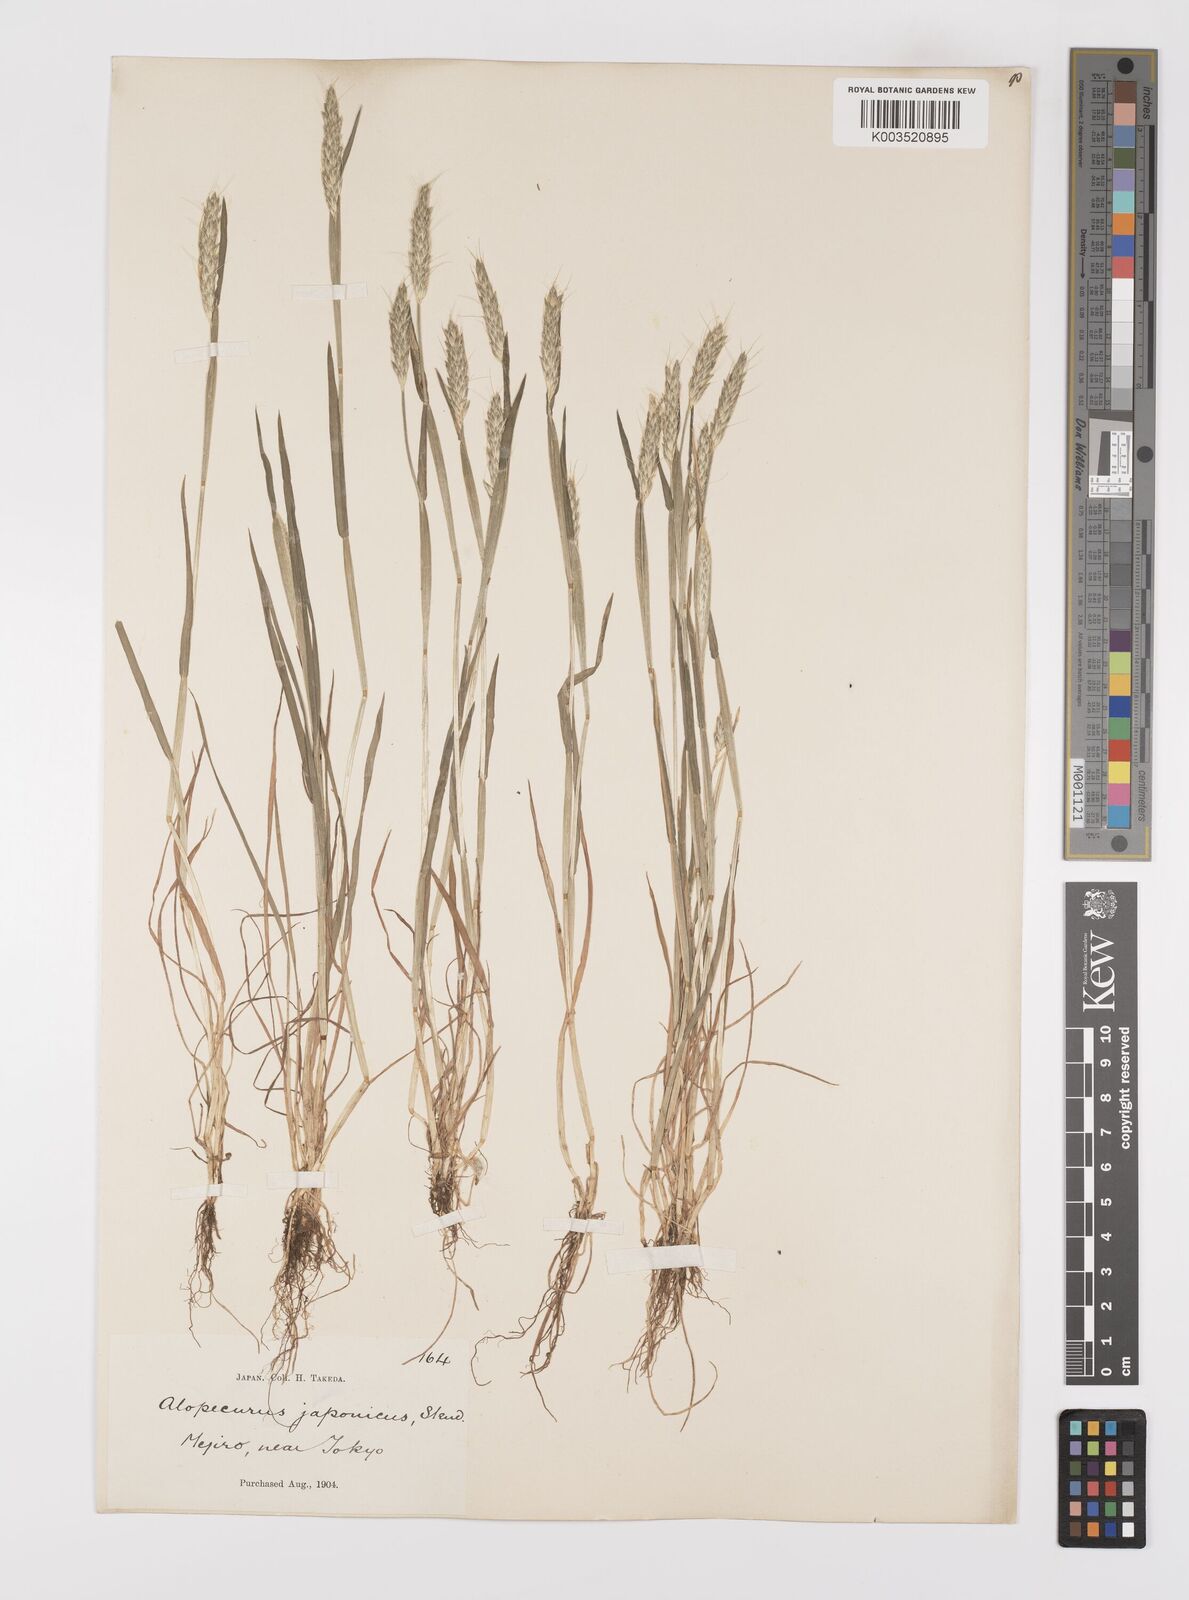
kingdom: Plantae
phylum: Tracheophyta
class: Liliopsida
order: Poales
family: Poaceae
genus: Alopecurus
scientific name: Alopecurus japonicus
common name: Japanese foxtail
